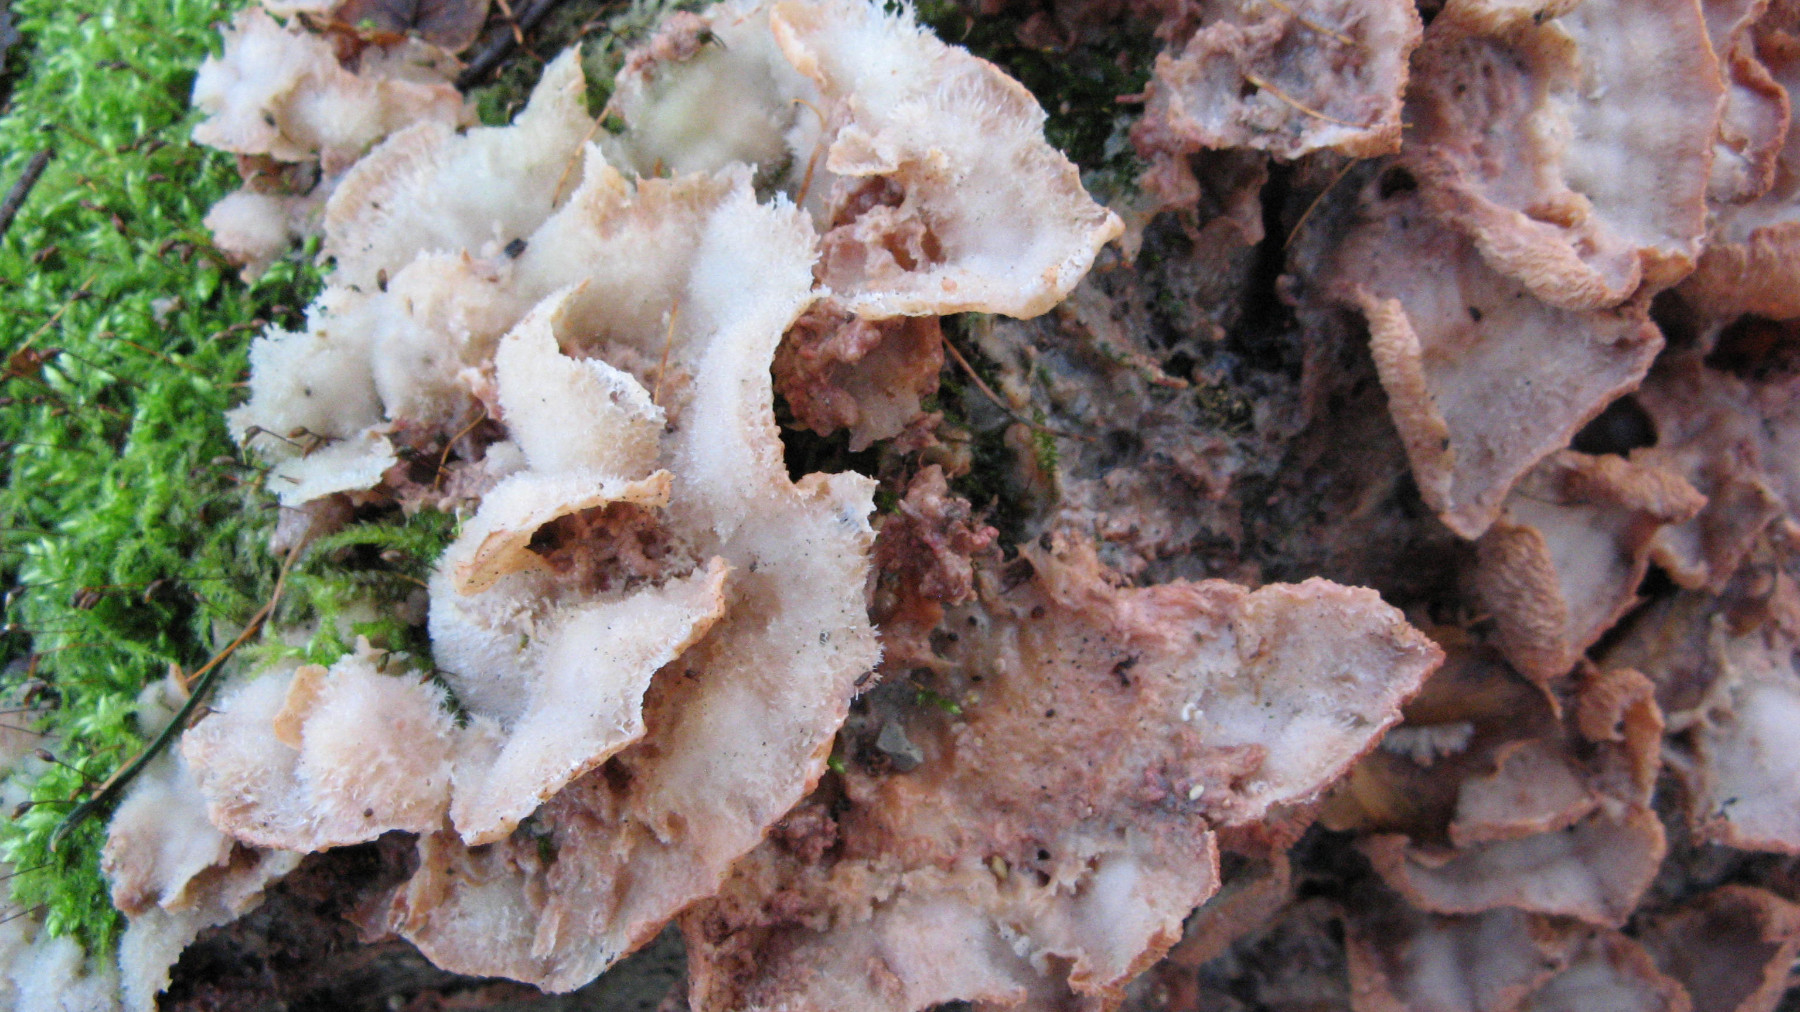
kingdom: Fungi
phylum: Basidiomycota
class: Agaricomycetes
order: Polyporales
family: Meruliaceae
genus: Phlebia
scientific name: Phlebia tremellosa
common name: bævrende åresvamp
